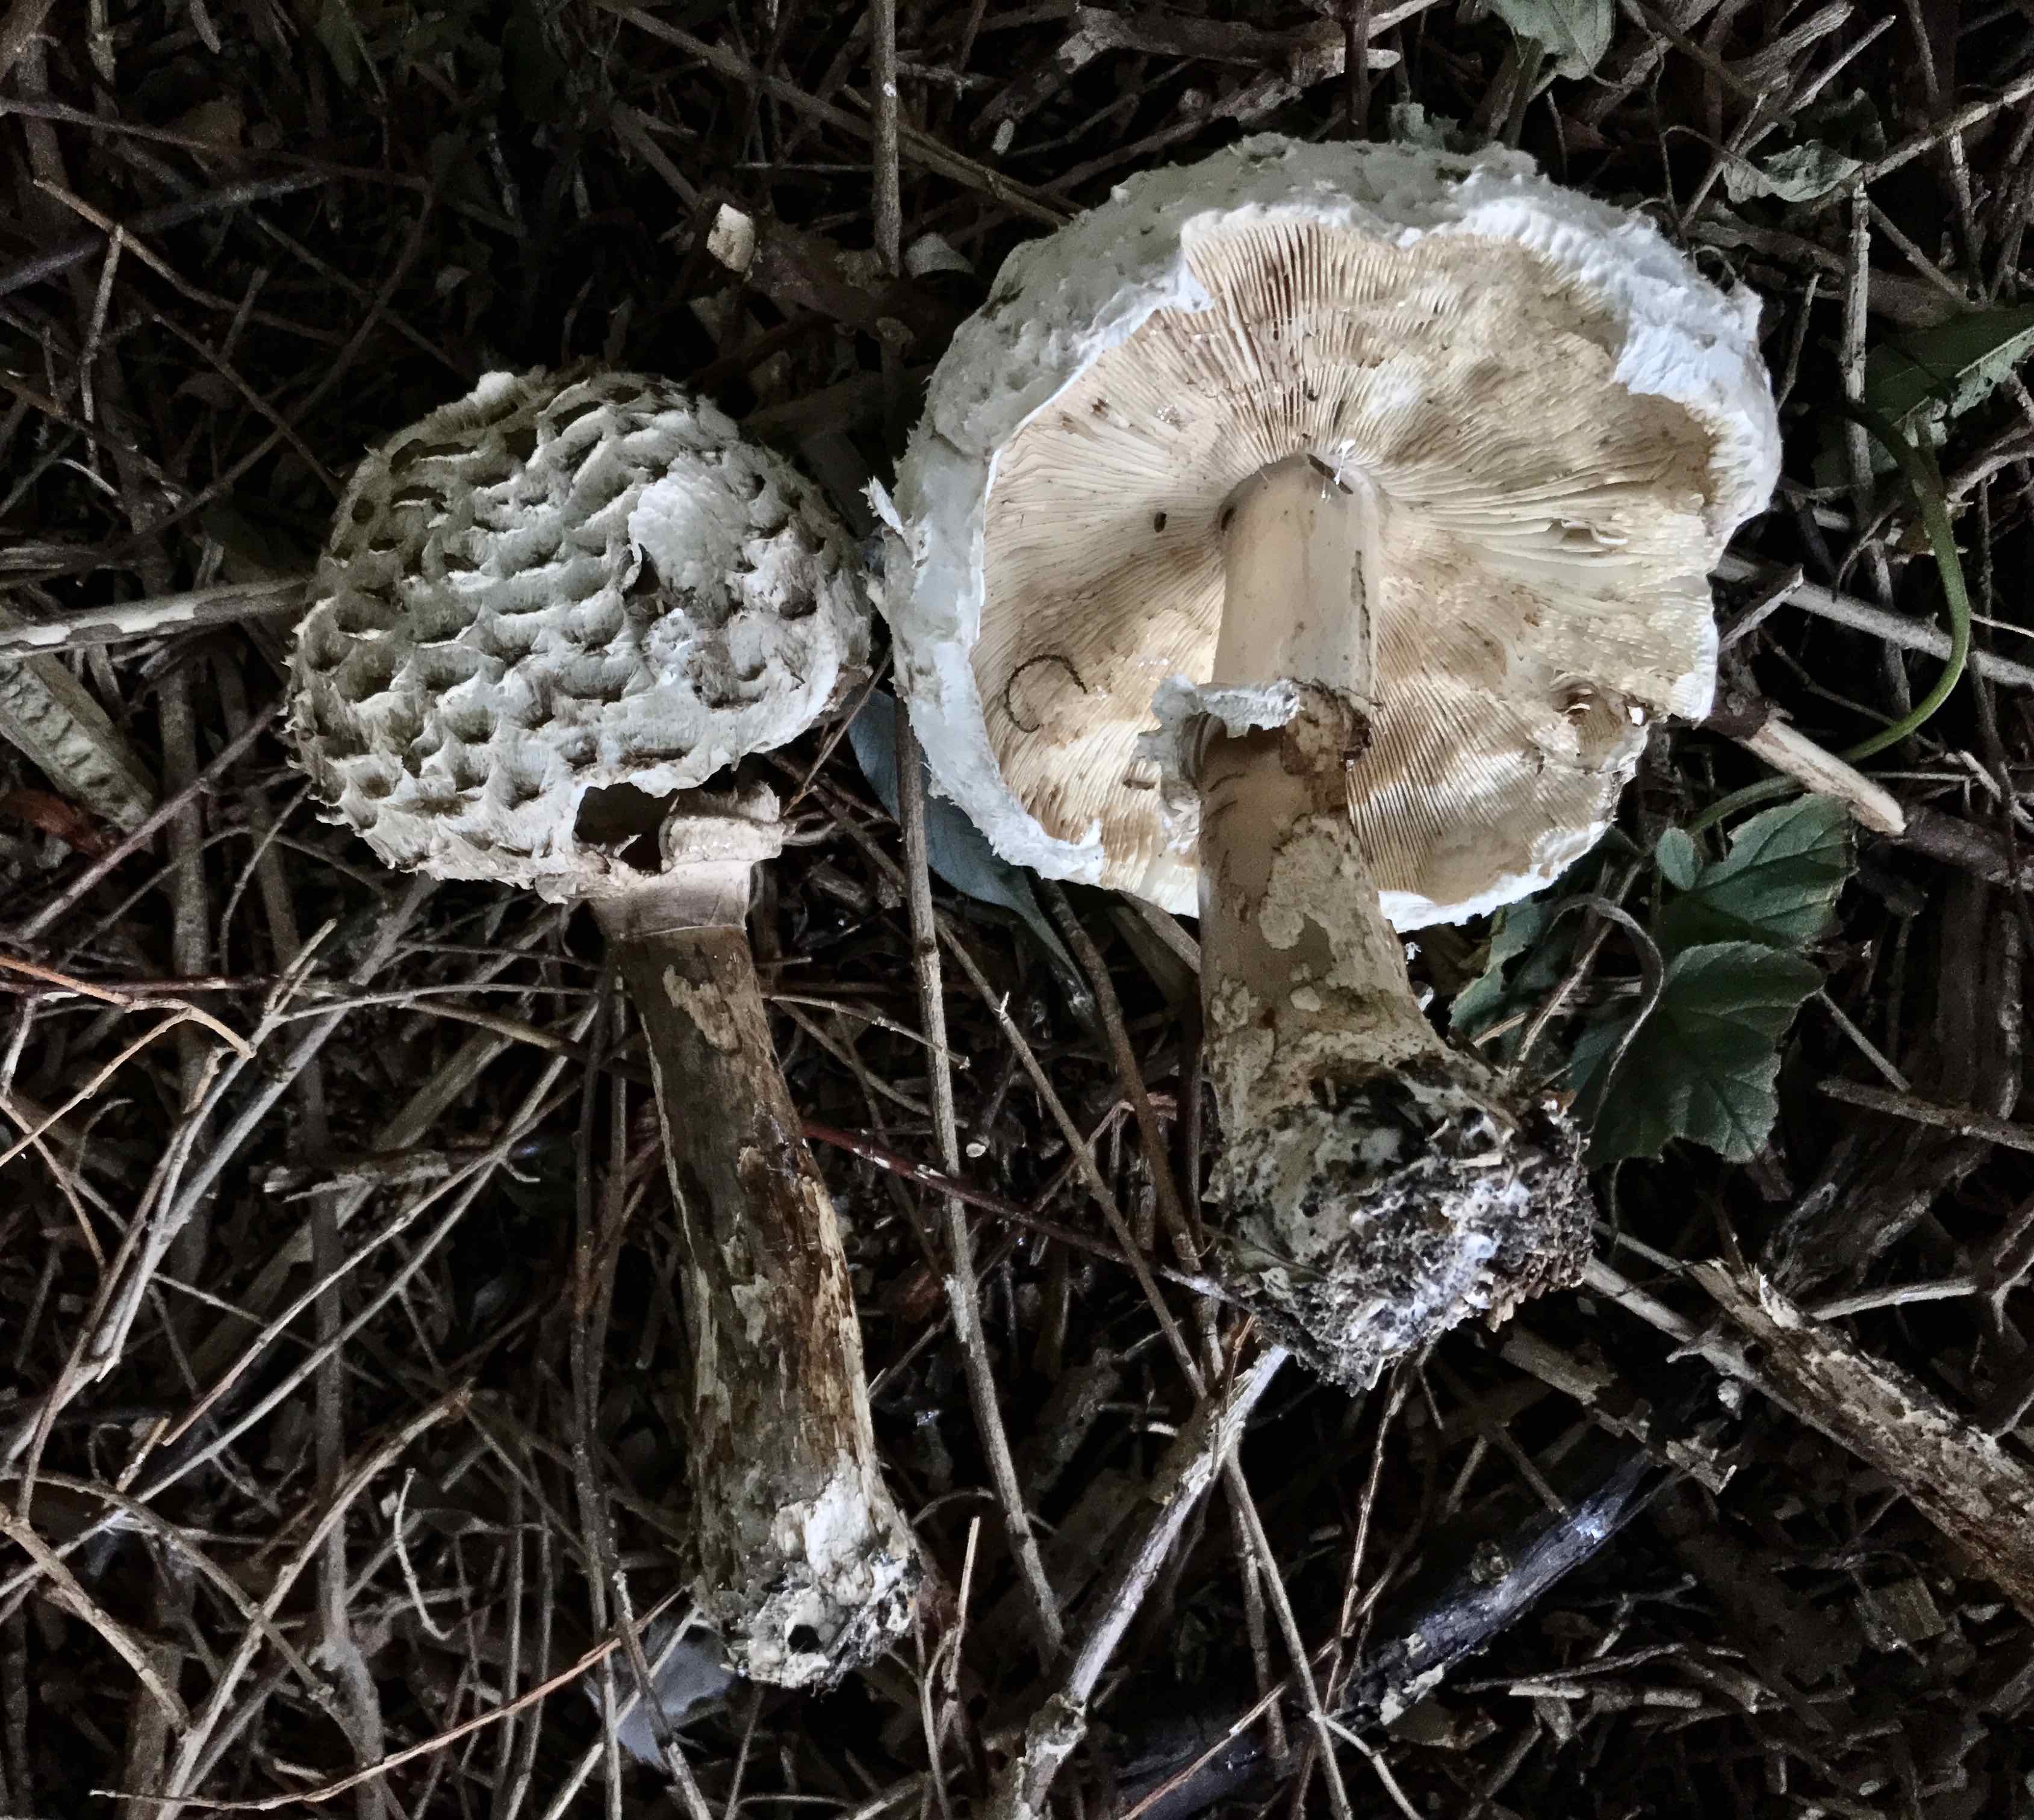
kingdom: Fungi
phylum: Basidiomycota
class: Agaricomycetes
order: Agaricales
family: Agaricaceae
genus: Chlorophyllum
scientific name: Chlorophyllum olivieri
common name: almindelig rabarberhat
